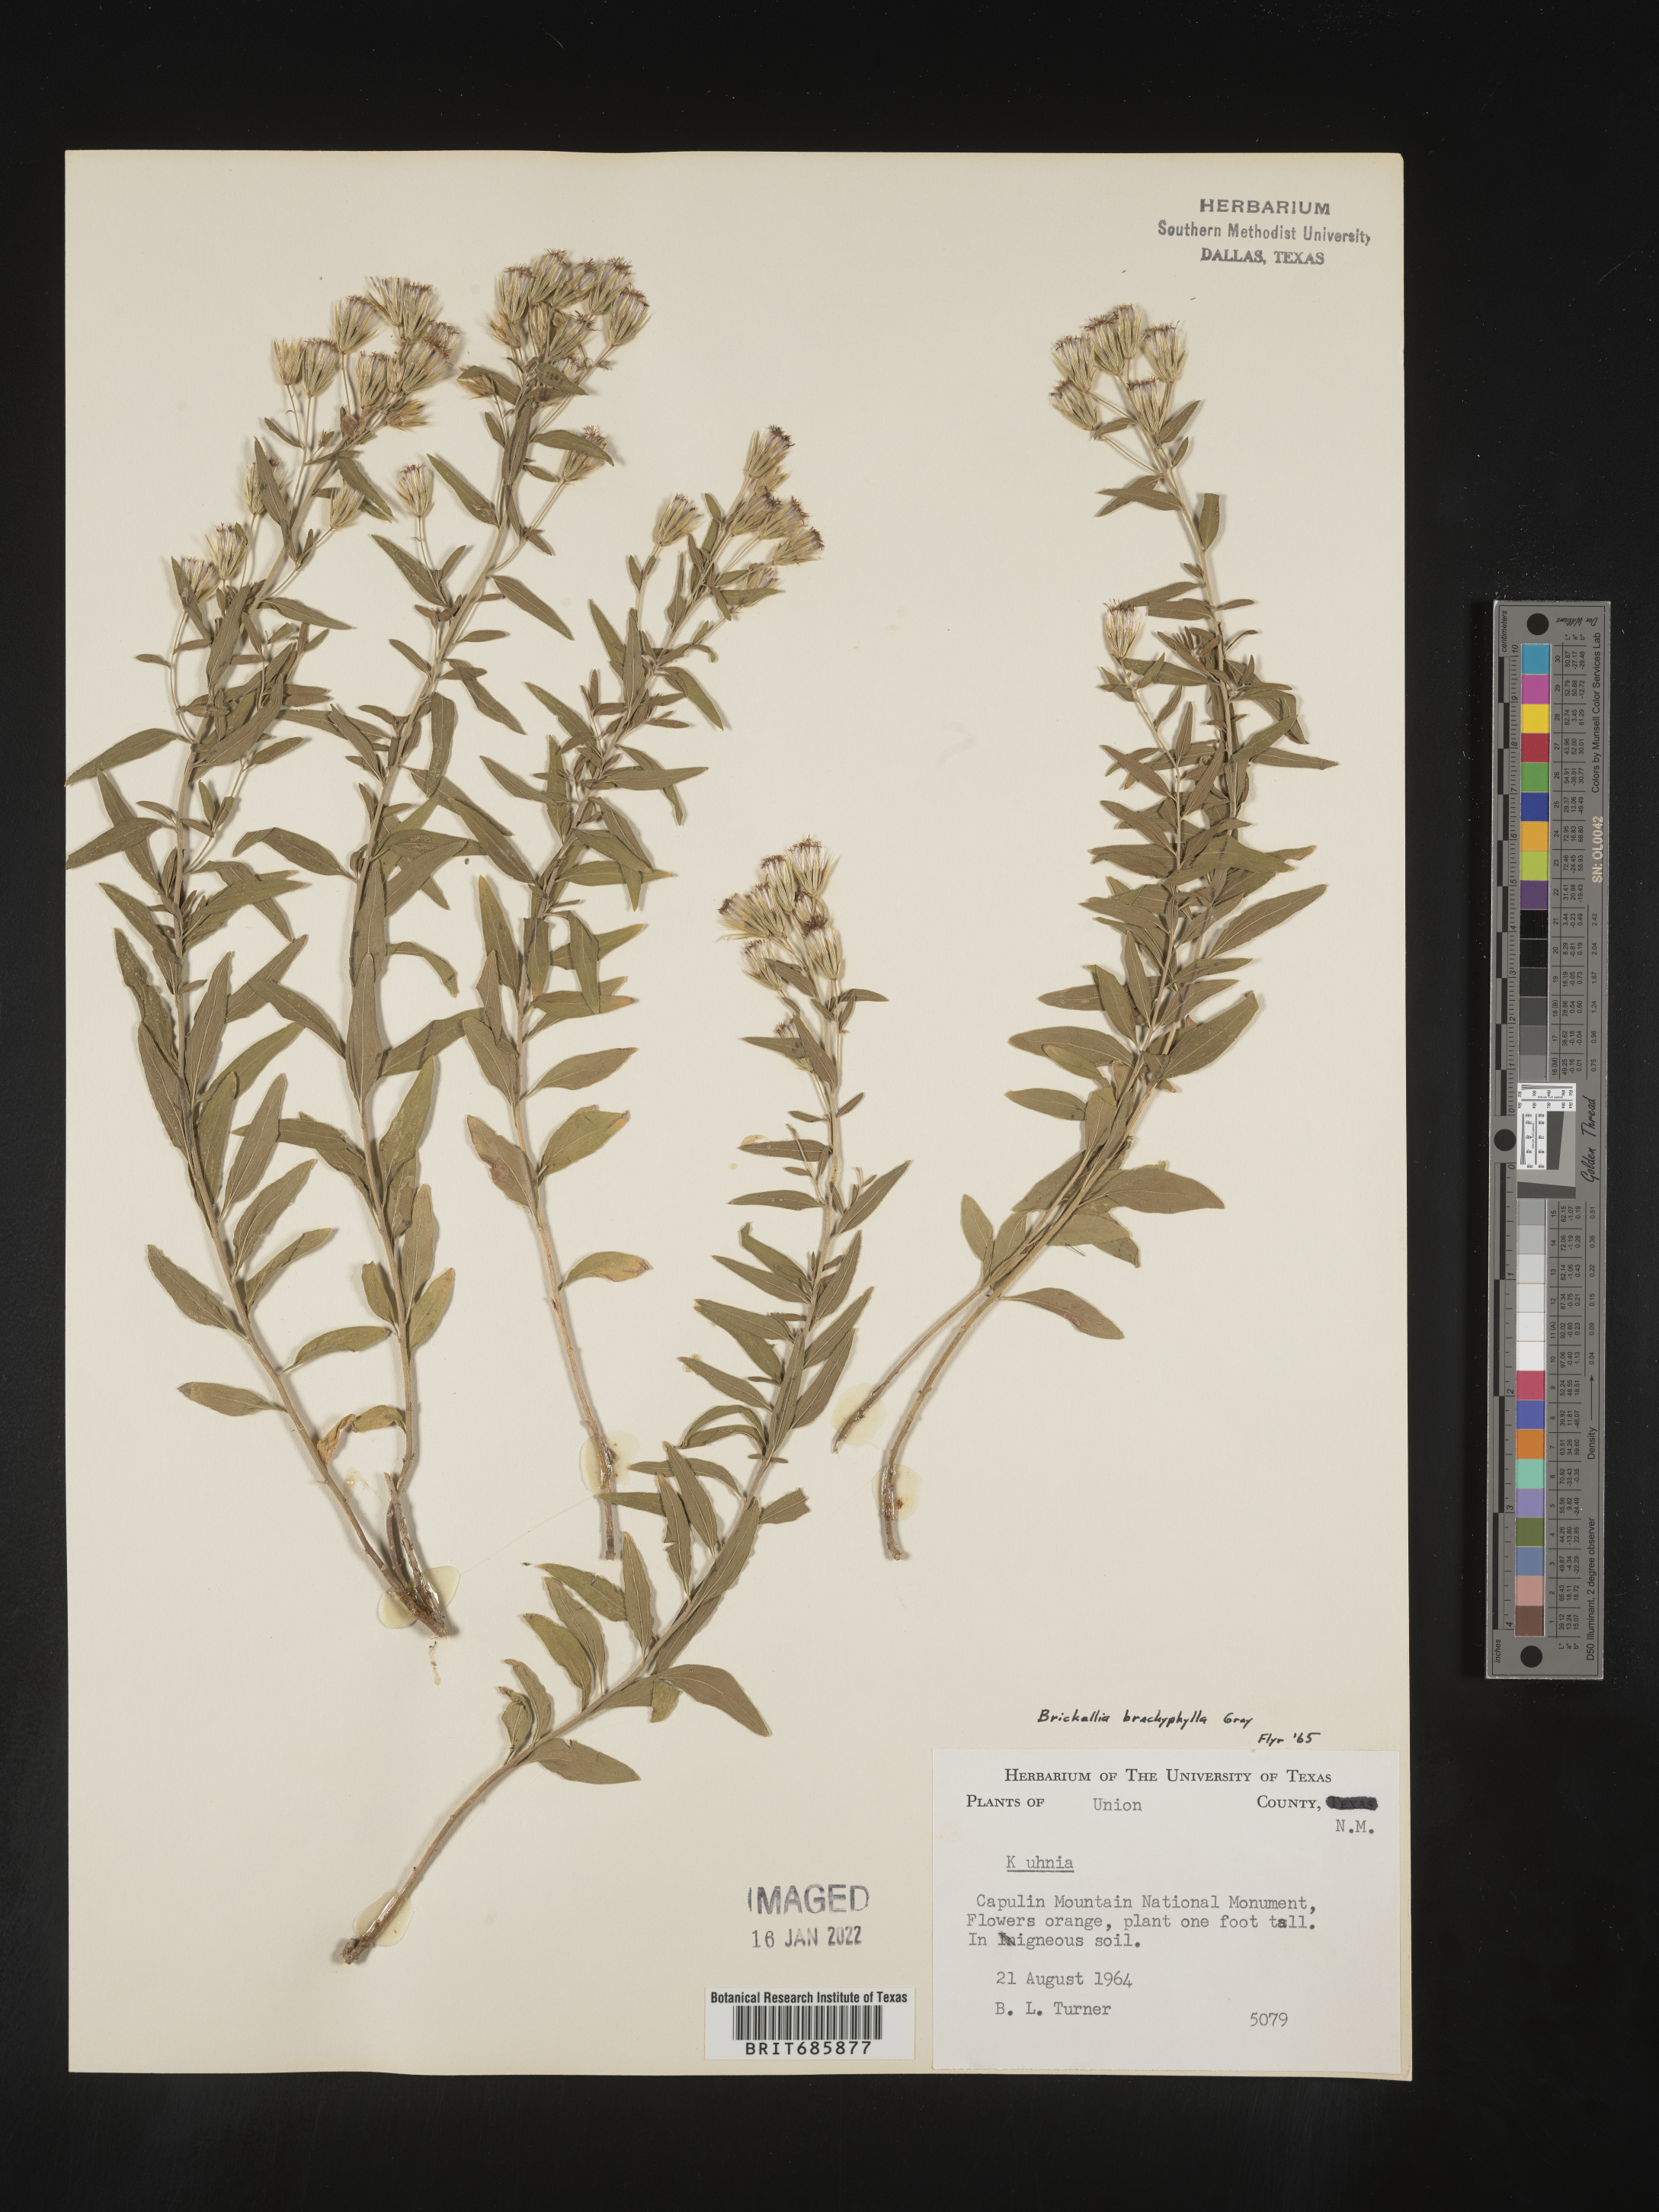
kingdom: Plantae
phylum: Tracheophyta
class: Magnoliopsida
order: Asterales
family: Asteraceae
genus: Brickellia
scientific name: Brickellia brachyphylla
